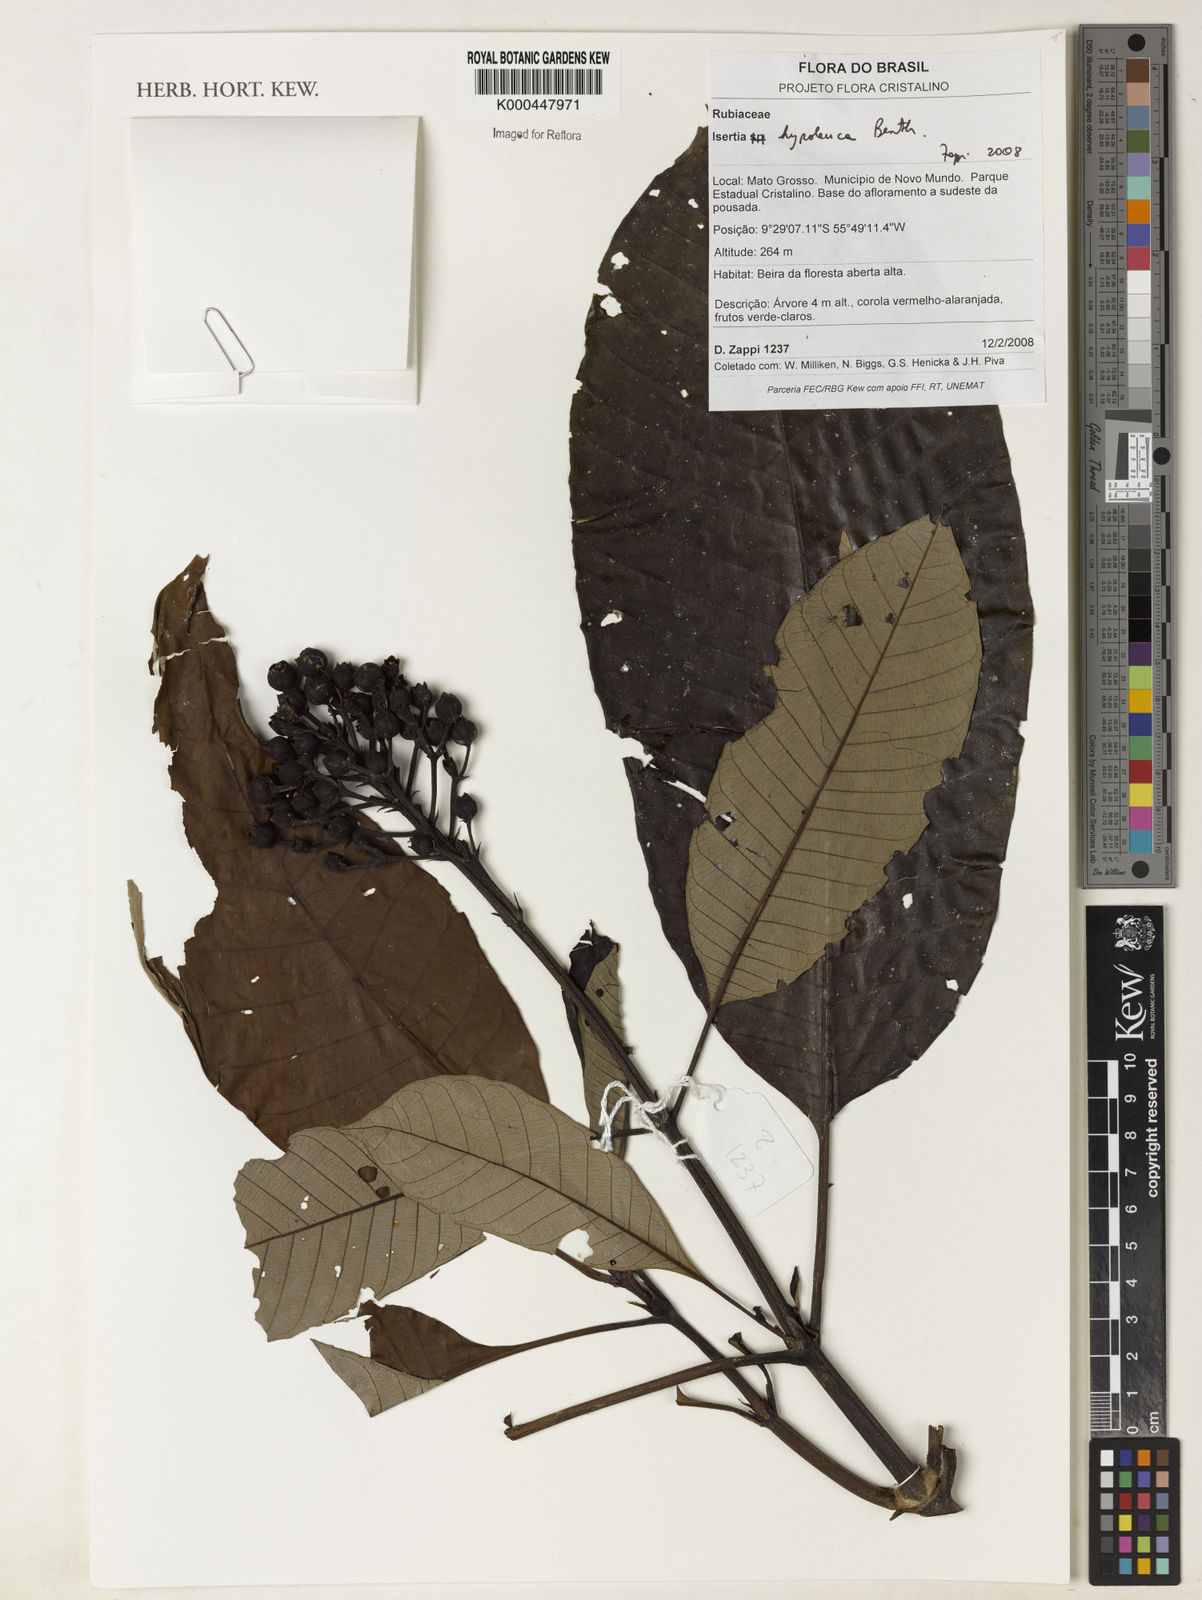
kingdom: Plantae
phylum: Tracheophyta
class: Magnoliopsida
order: Gentianales
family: Rubiaceae
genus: Isertia
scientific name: Isertia hypoleuca
